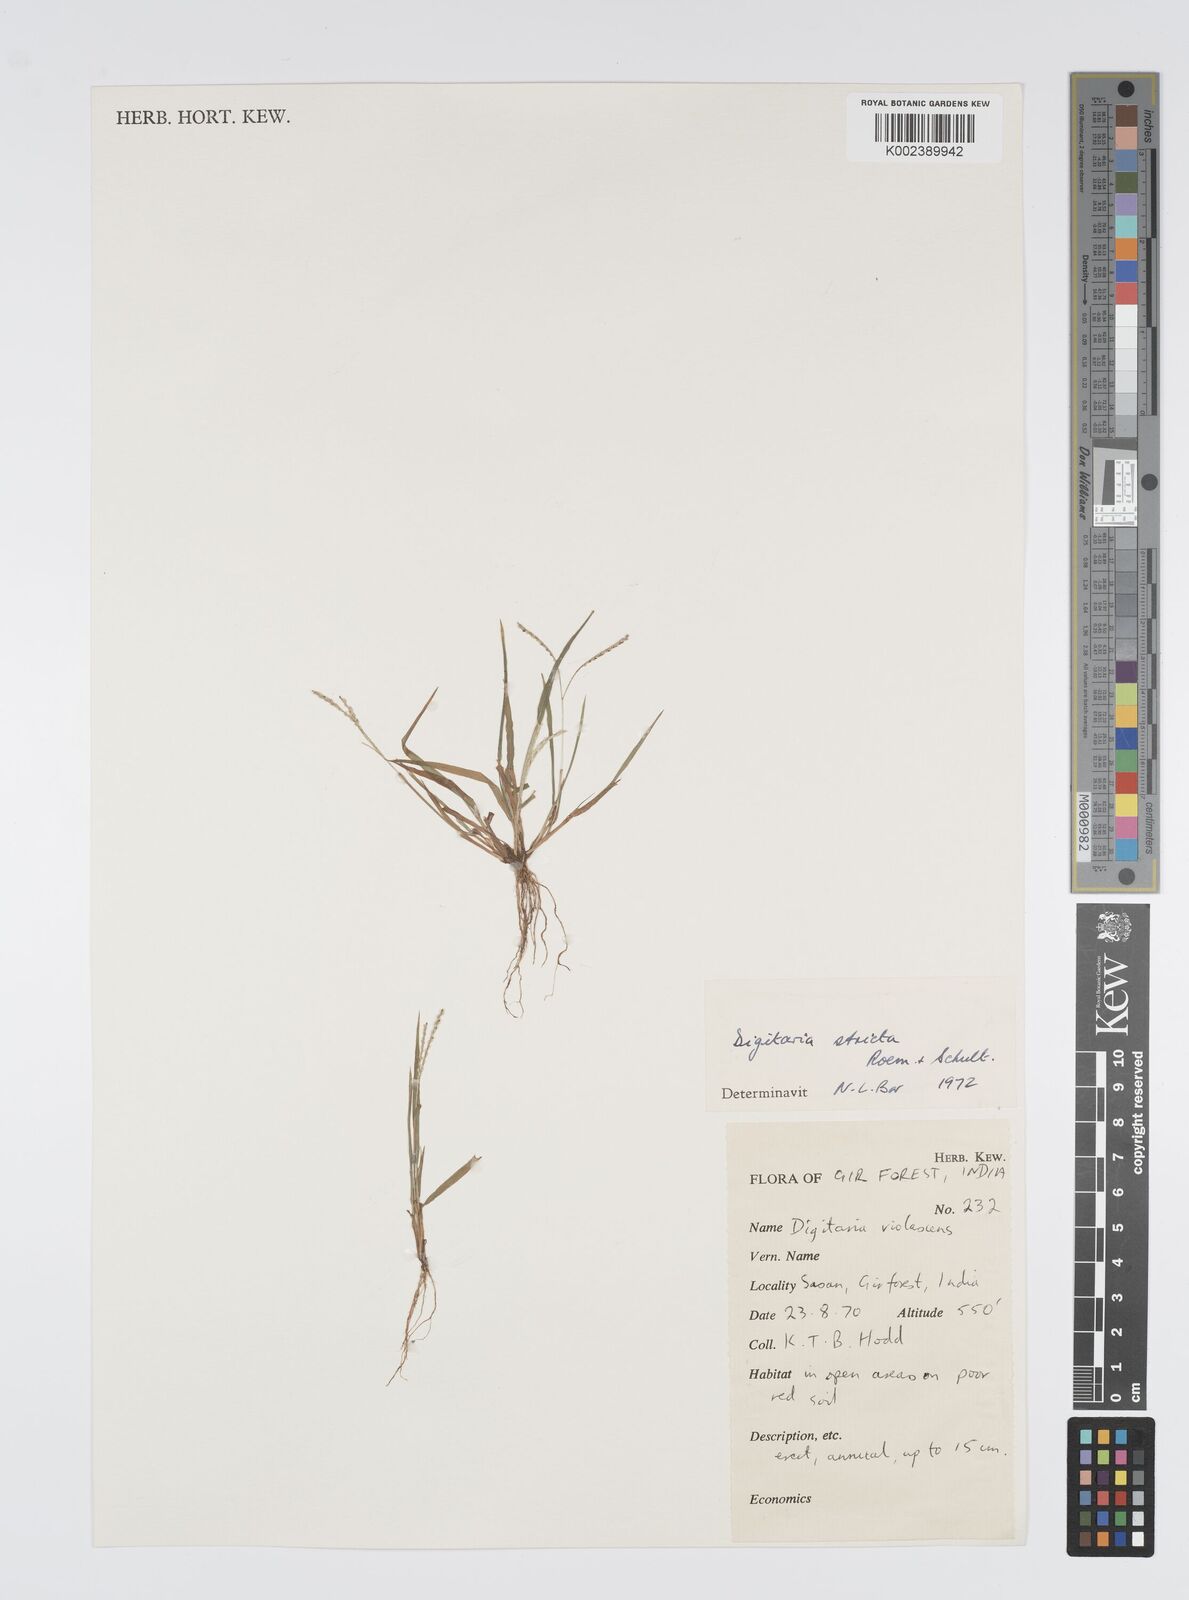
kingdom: Plantae
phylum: Tracheophyta
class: Liliopsida
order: Poales
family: Poaceae
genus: Digitaria
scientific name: Digitaria stricta
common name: Crabgrass
